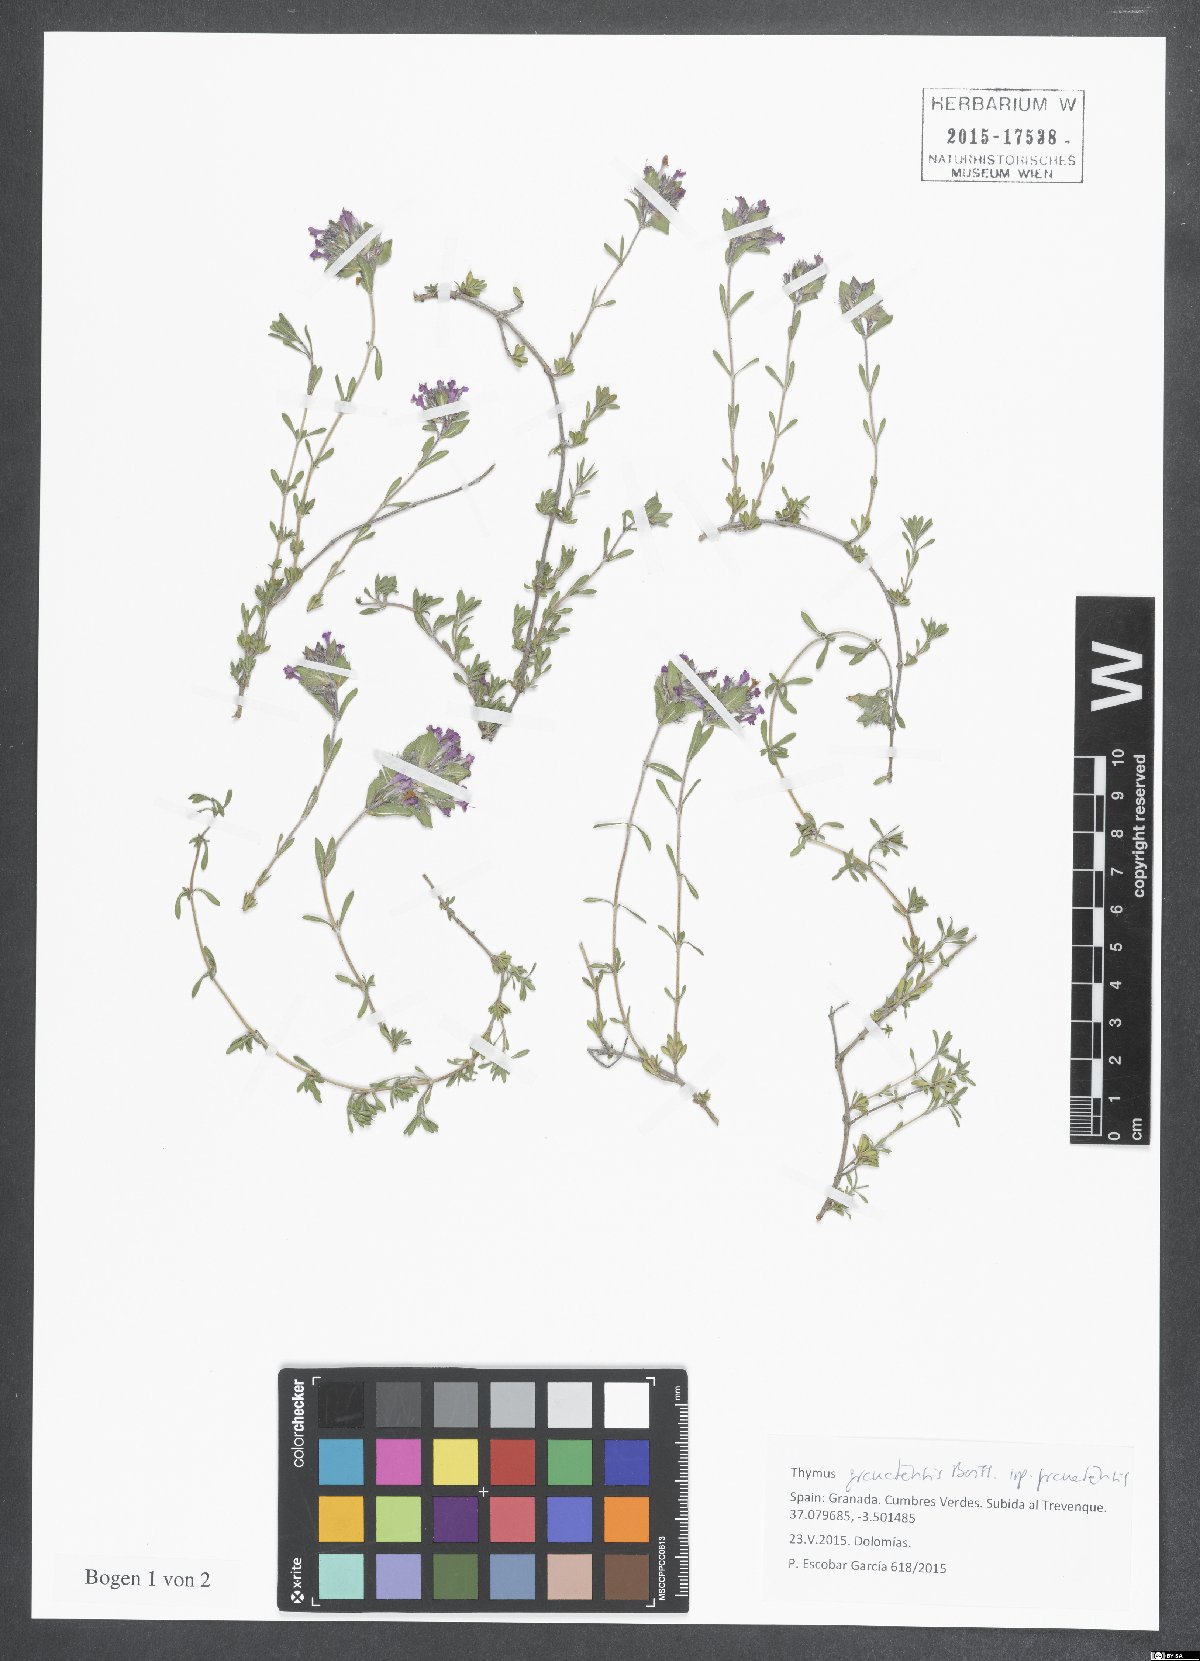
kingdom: Plantae
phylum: Tracheophyta
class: Magnoliopsida
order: Lamiales
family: Lamiaceae
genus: Thymus
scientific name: Thymus granatensis
